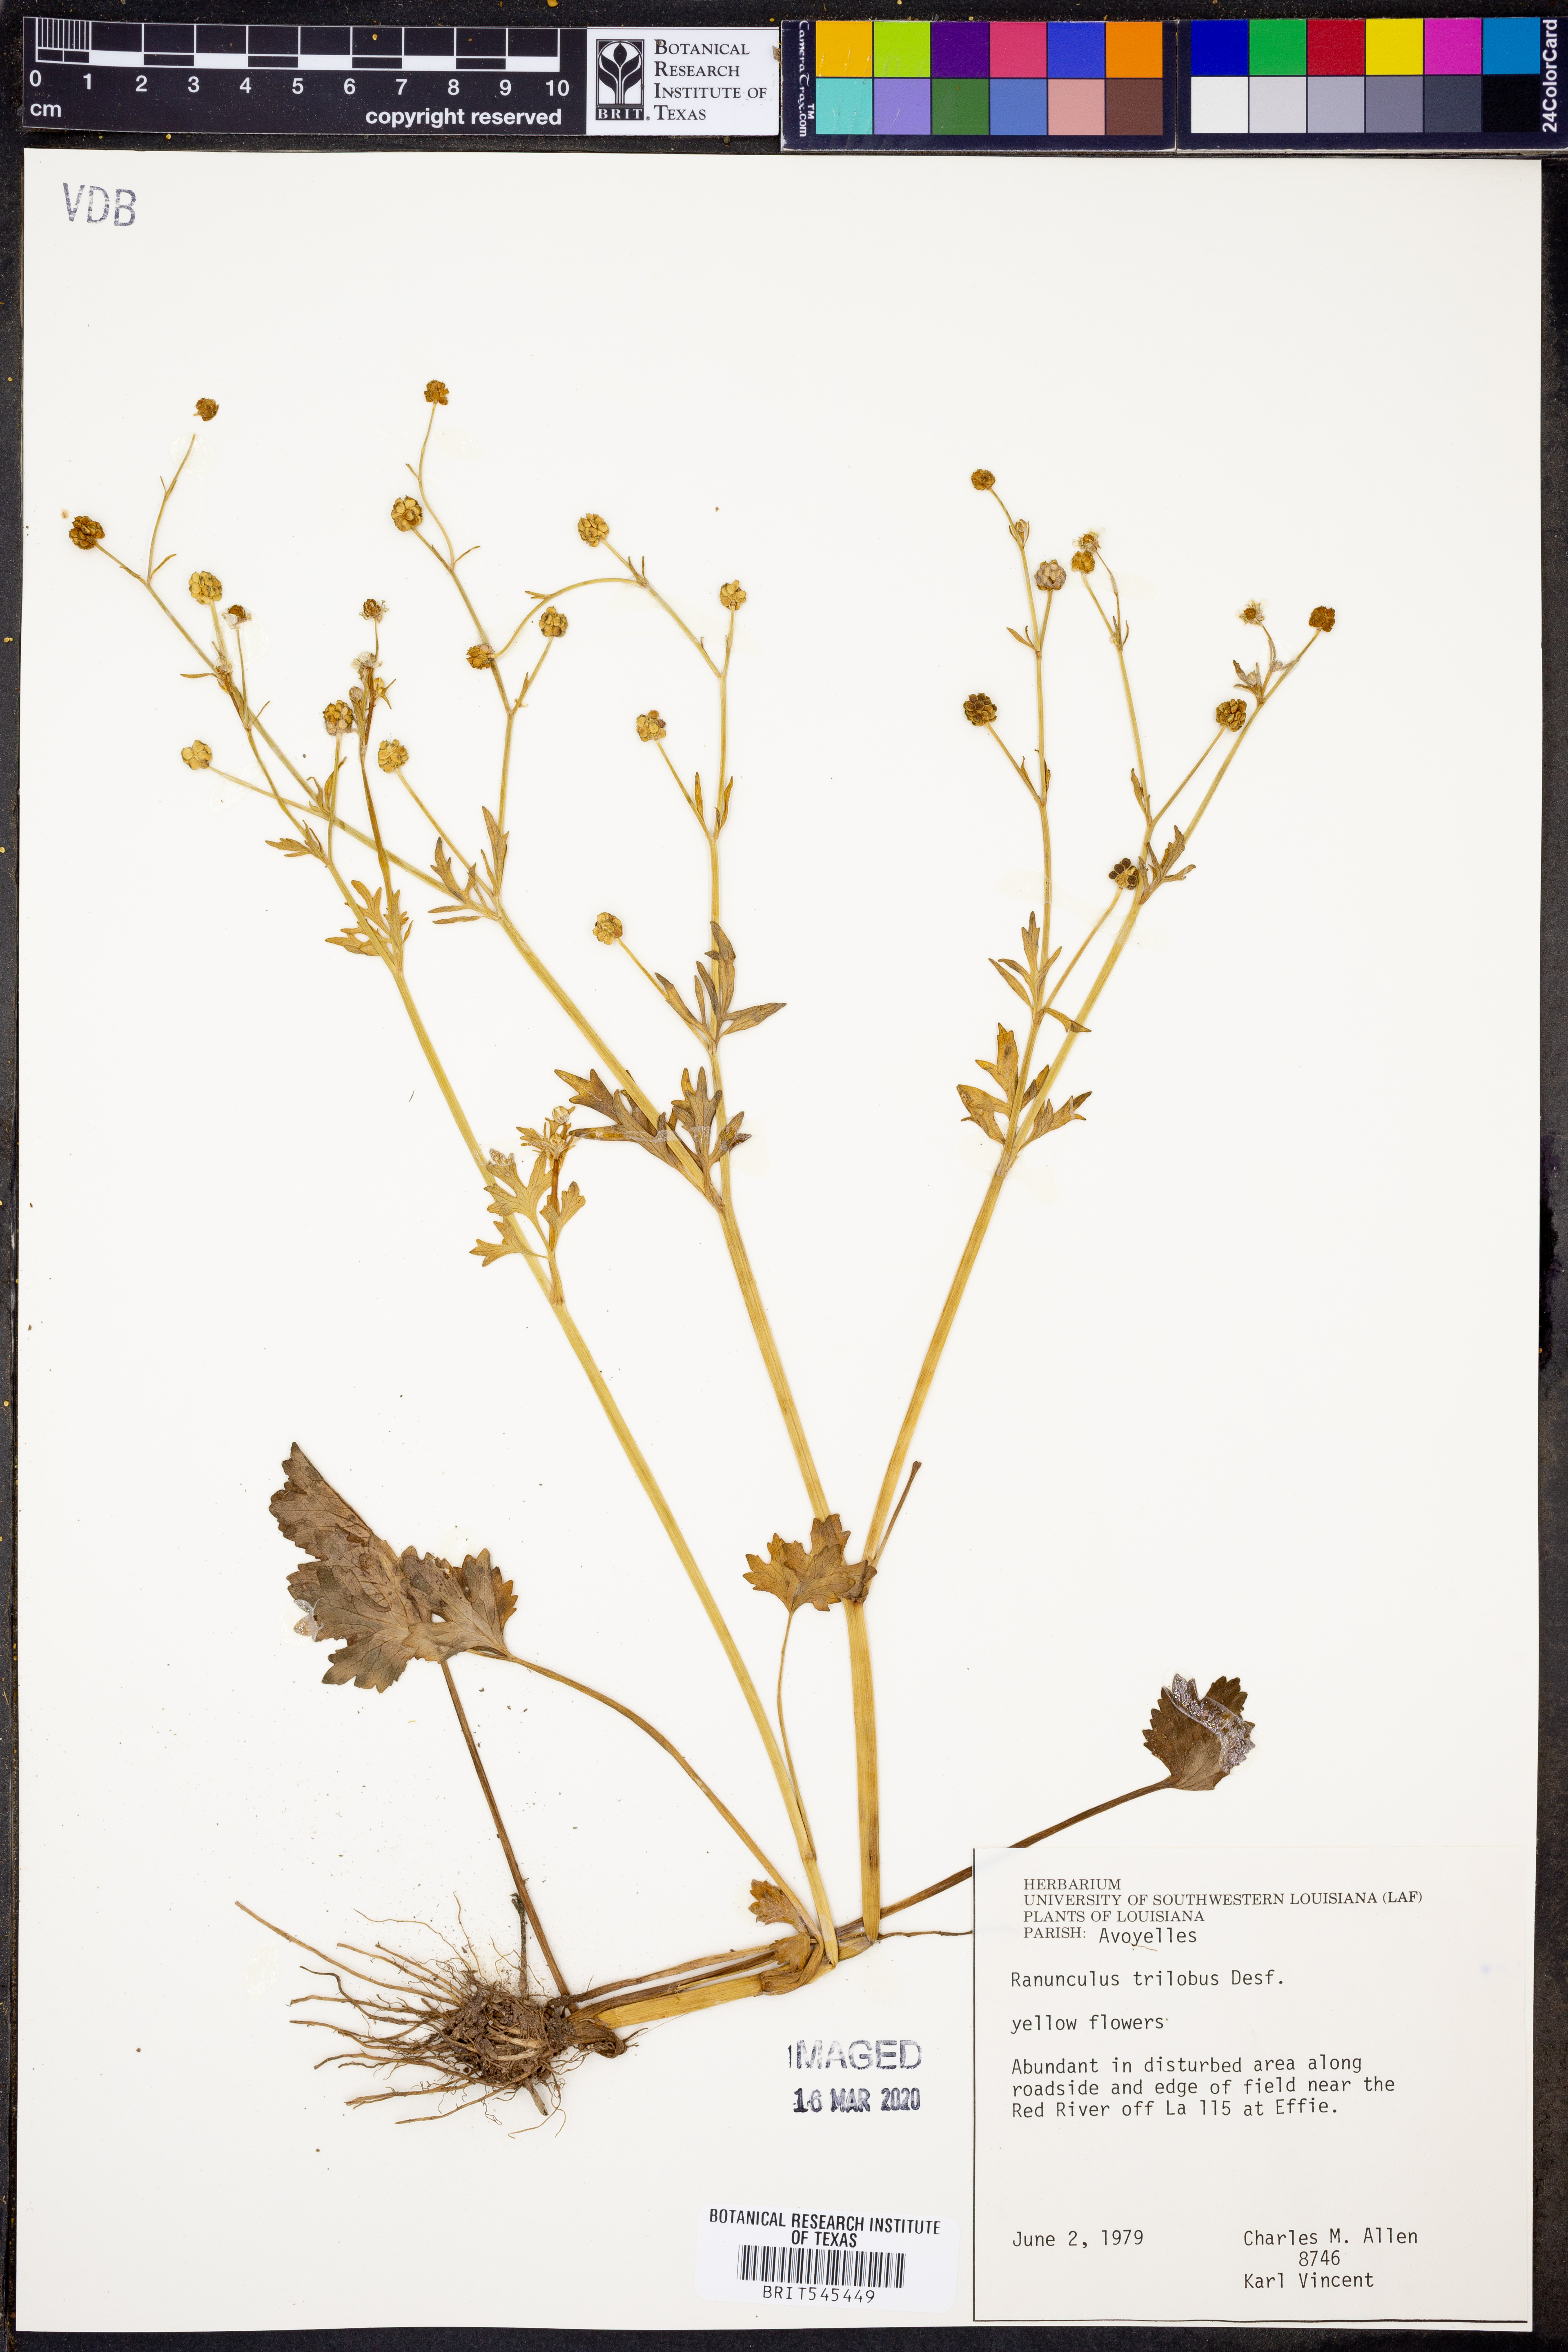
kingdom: Plantae
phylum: Tracheophyta
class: Magnoliopsida
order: Ranunculales
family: Ranunculaceae
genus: Ranunculus
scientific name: Ranunculus trilobus
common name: Threelobe buttercup
